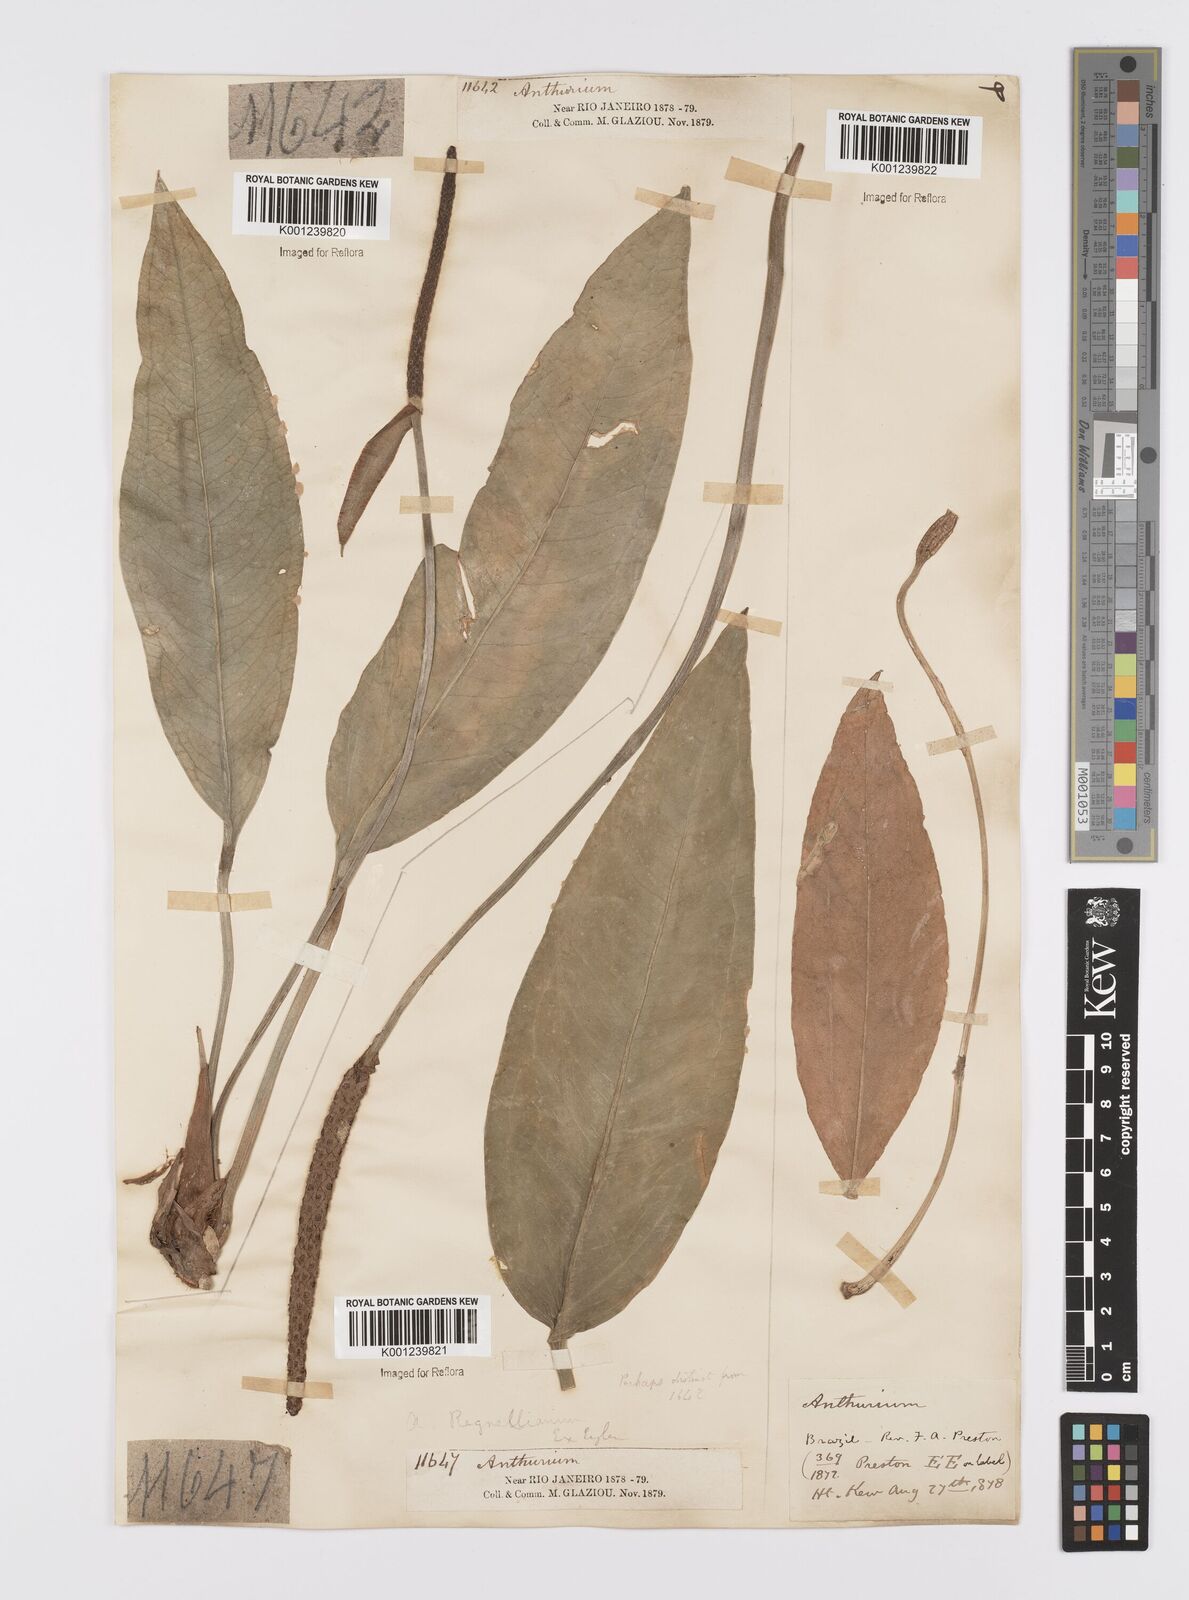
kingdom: Plantae
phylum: Tracheophyta
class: Liliopsida
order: Alismatales
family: Araceae
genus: Anthurium
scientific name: Anthurium
